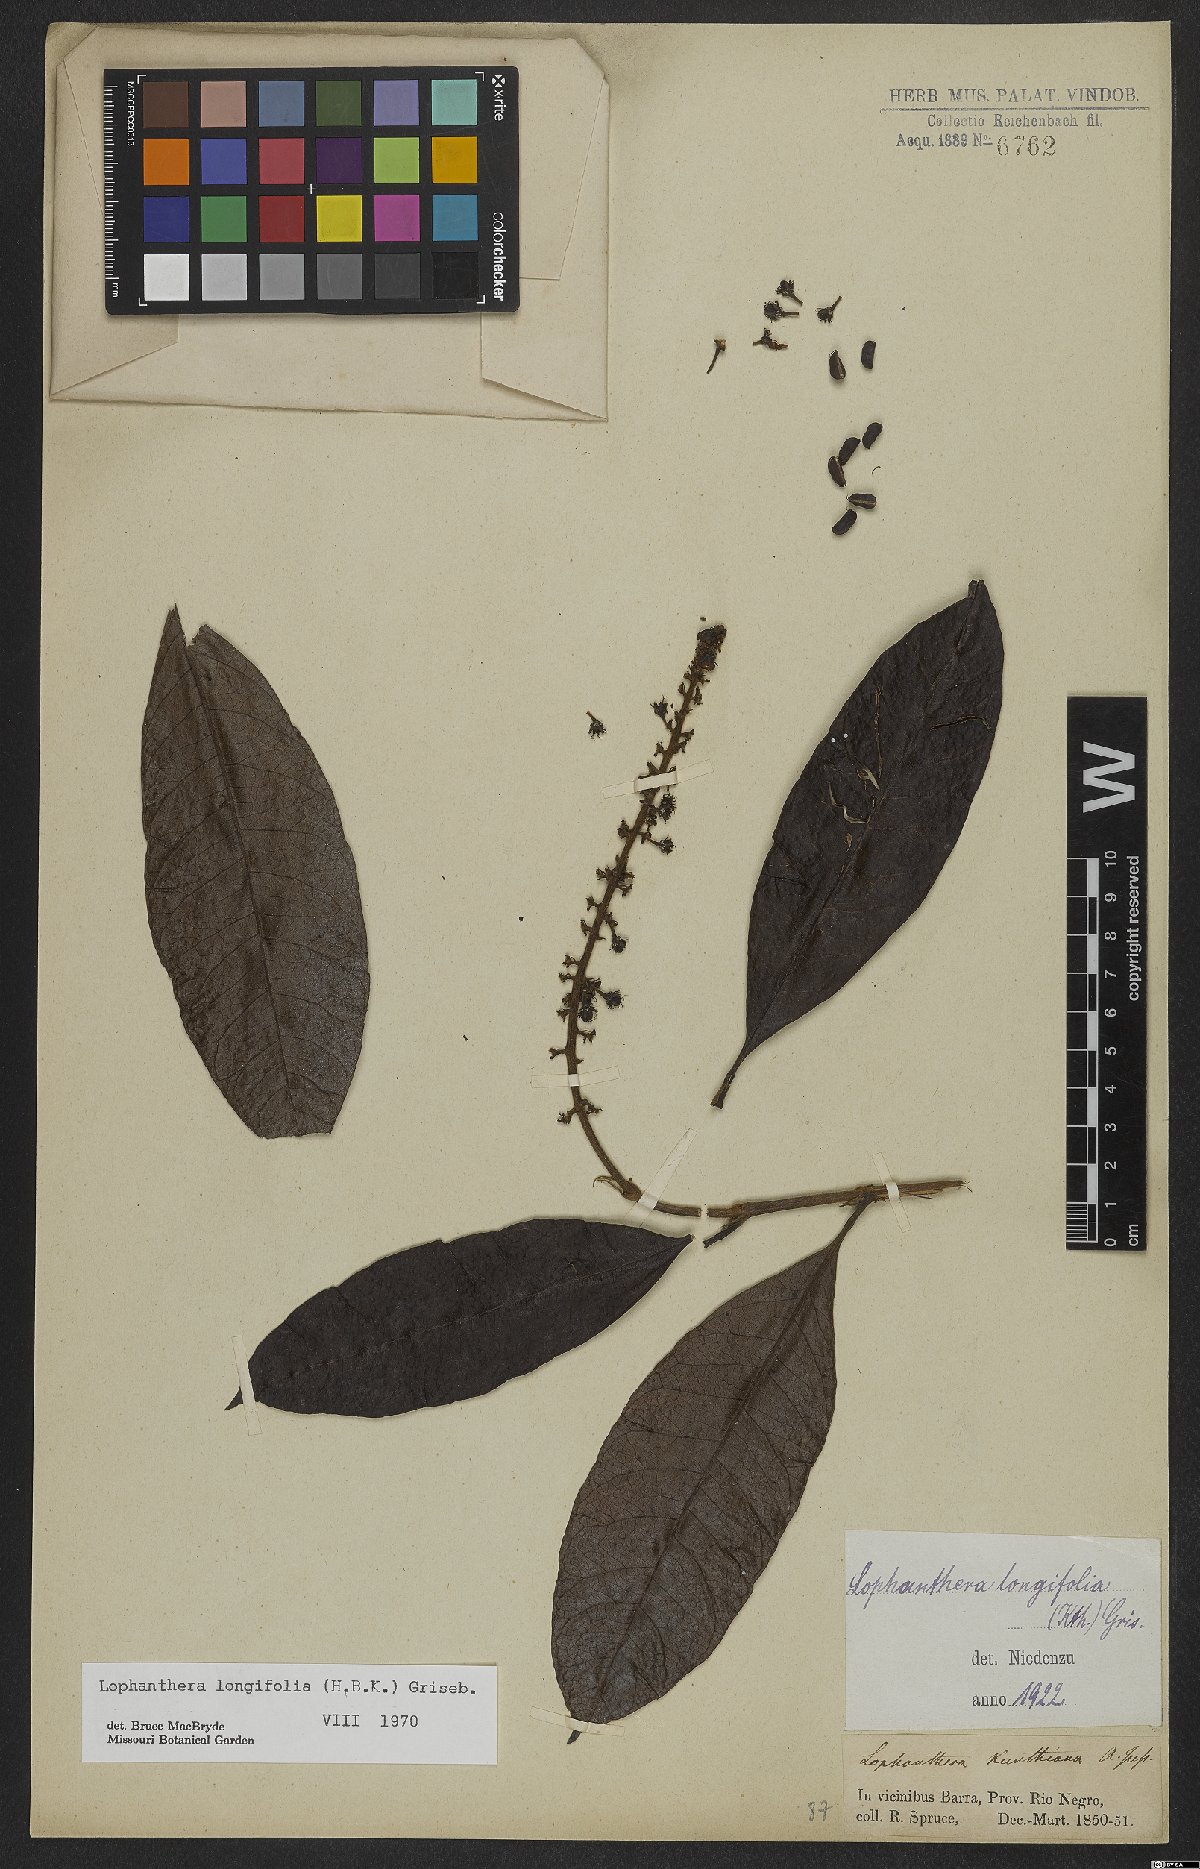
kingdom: Plantae
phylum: Tracheophyta
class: Magnoliopsida
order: Malpighiales
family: Malpighiaceae
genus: Lophanthera
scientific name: Lophanthera longifolia
